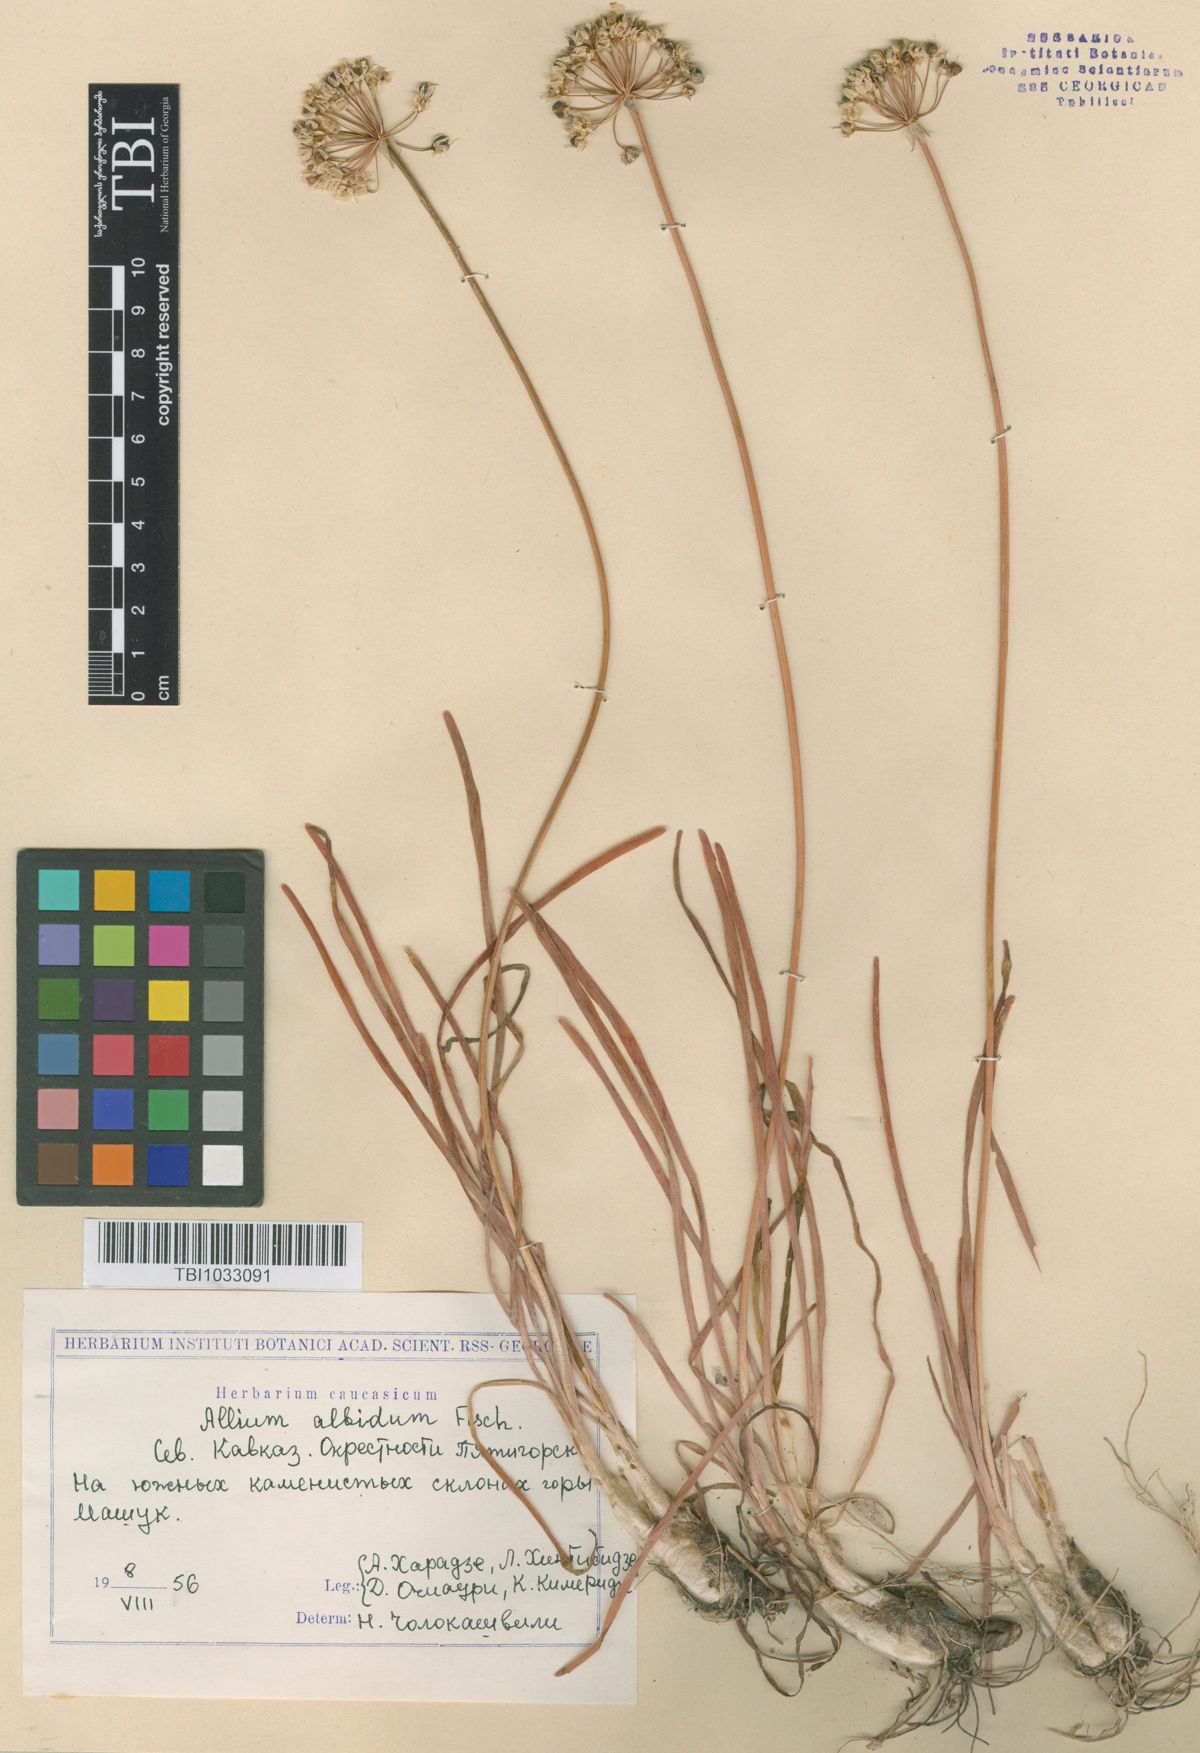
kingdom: Plantae
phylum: Tracheophyta
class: Liliopsida
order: Asparagales
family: Amaryllidaceae
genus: Allium
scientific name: Allium denudatum
